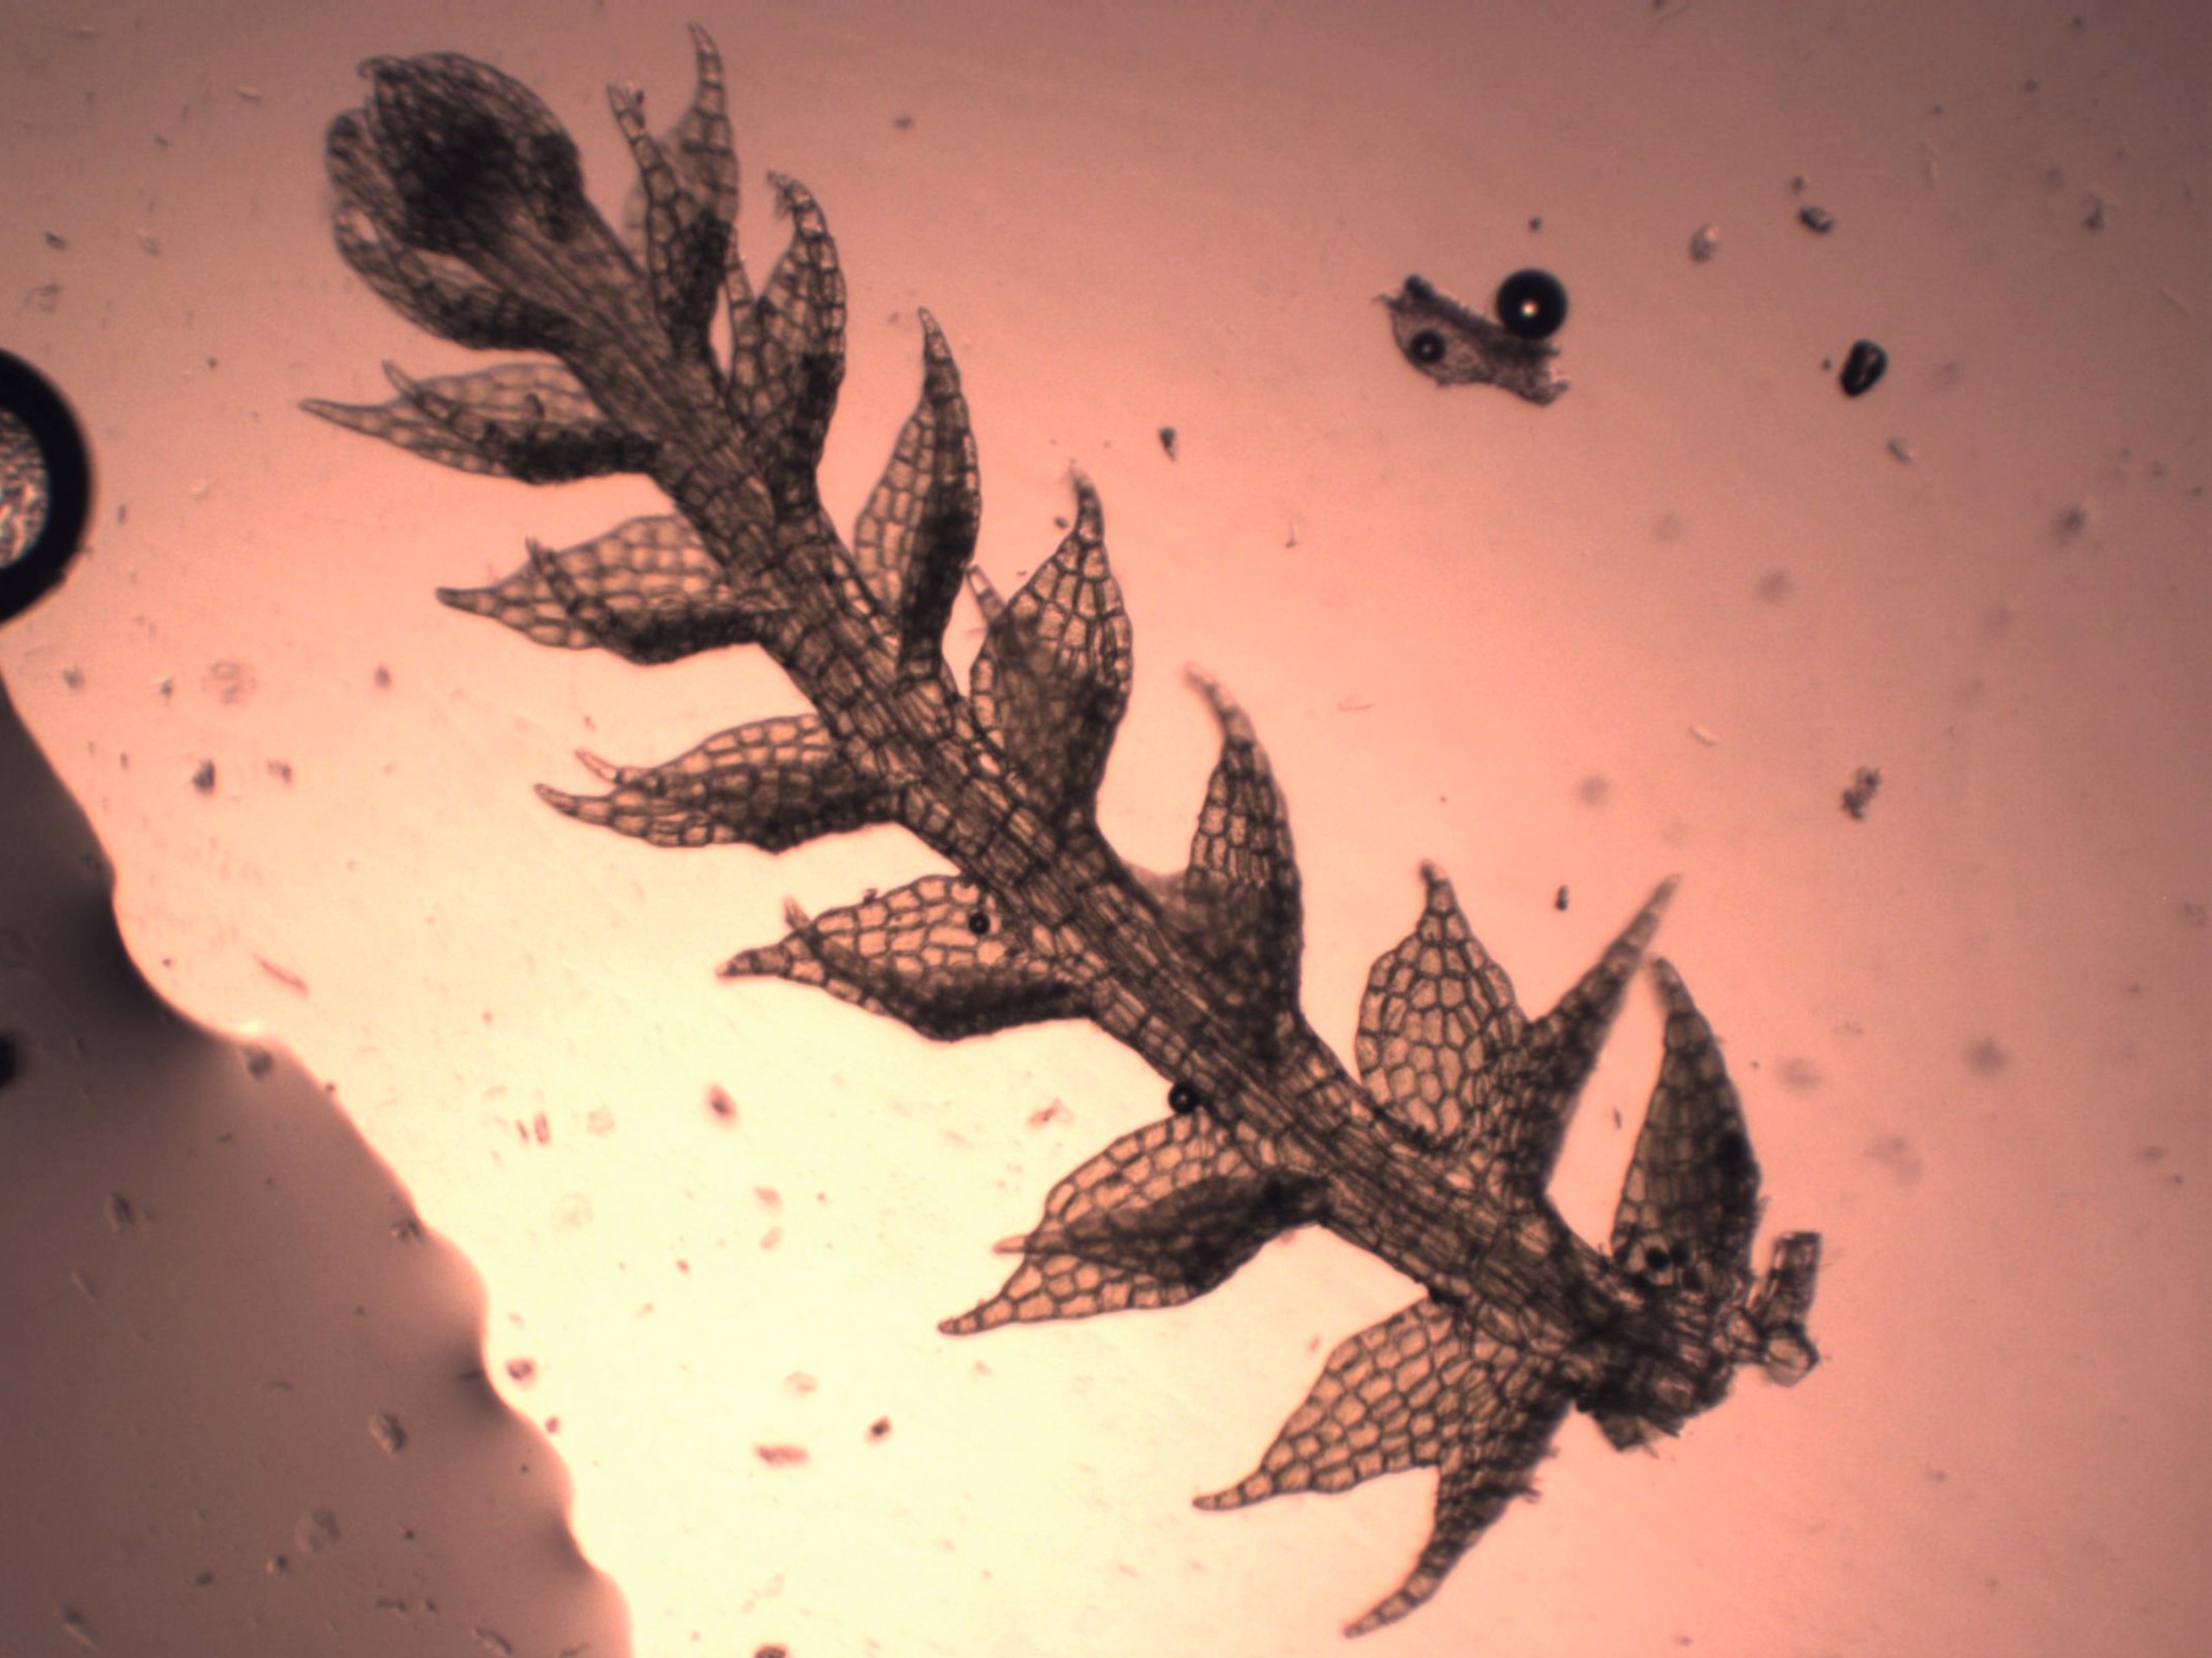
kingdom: Plantae
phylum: Marchantiophyta
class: Jungermanniopsida
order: Jungermanniales
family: Cephaloziaceae
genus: Cephalozia
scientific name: Cephalozia bicuspidata
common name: Tvespidset kantbæger
